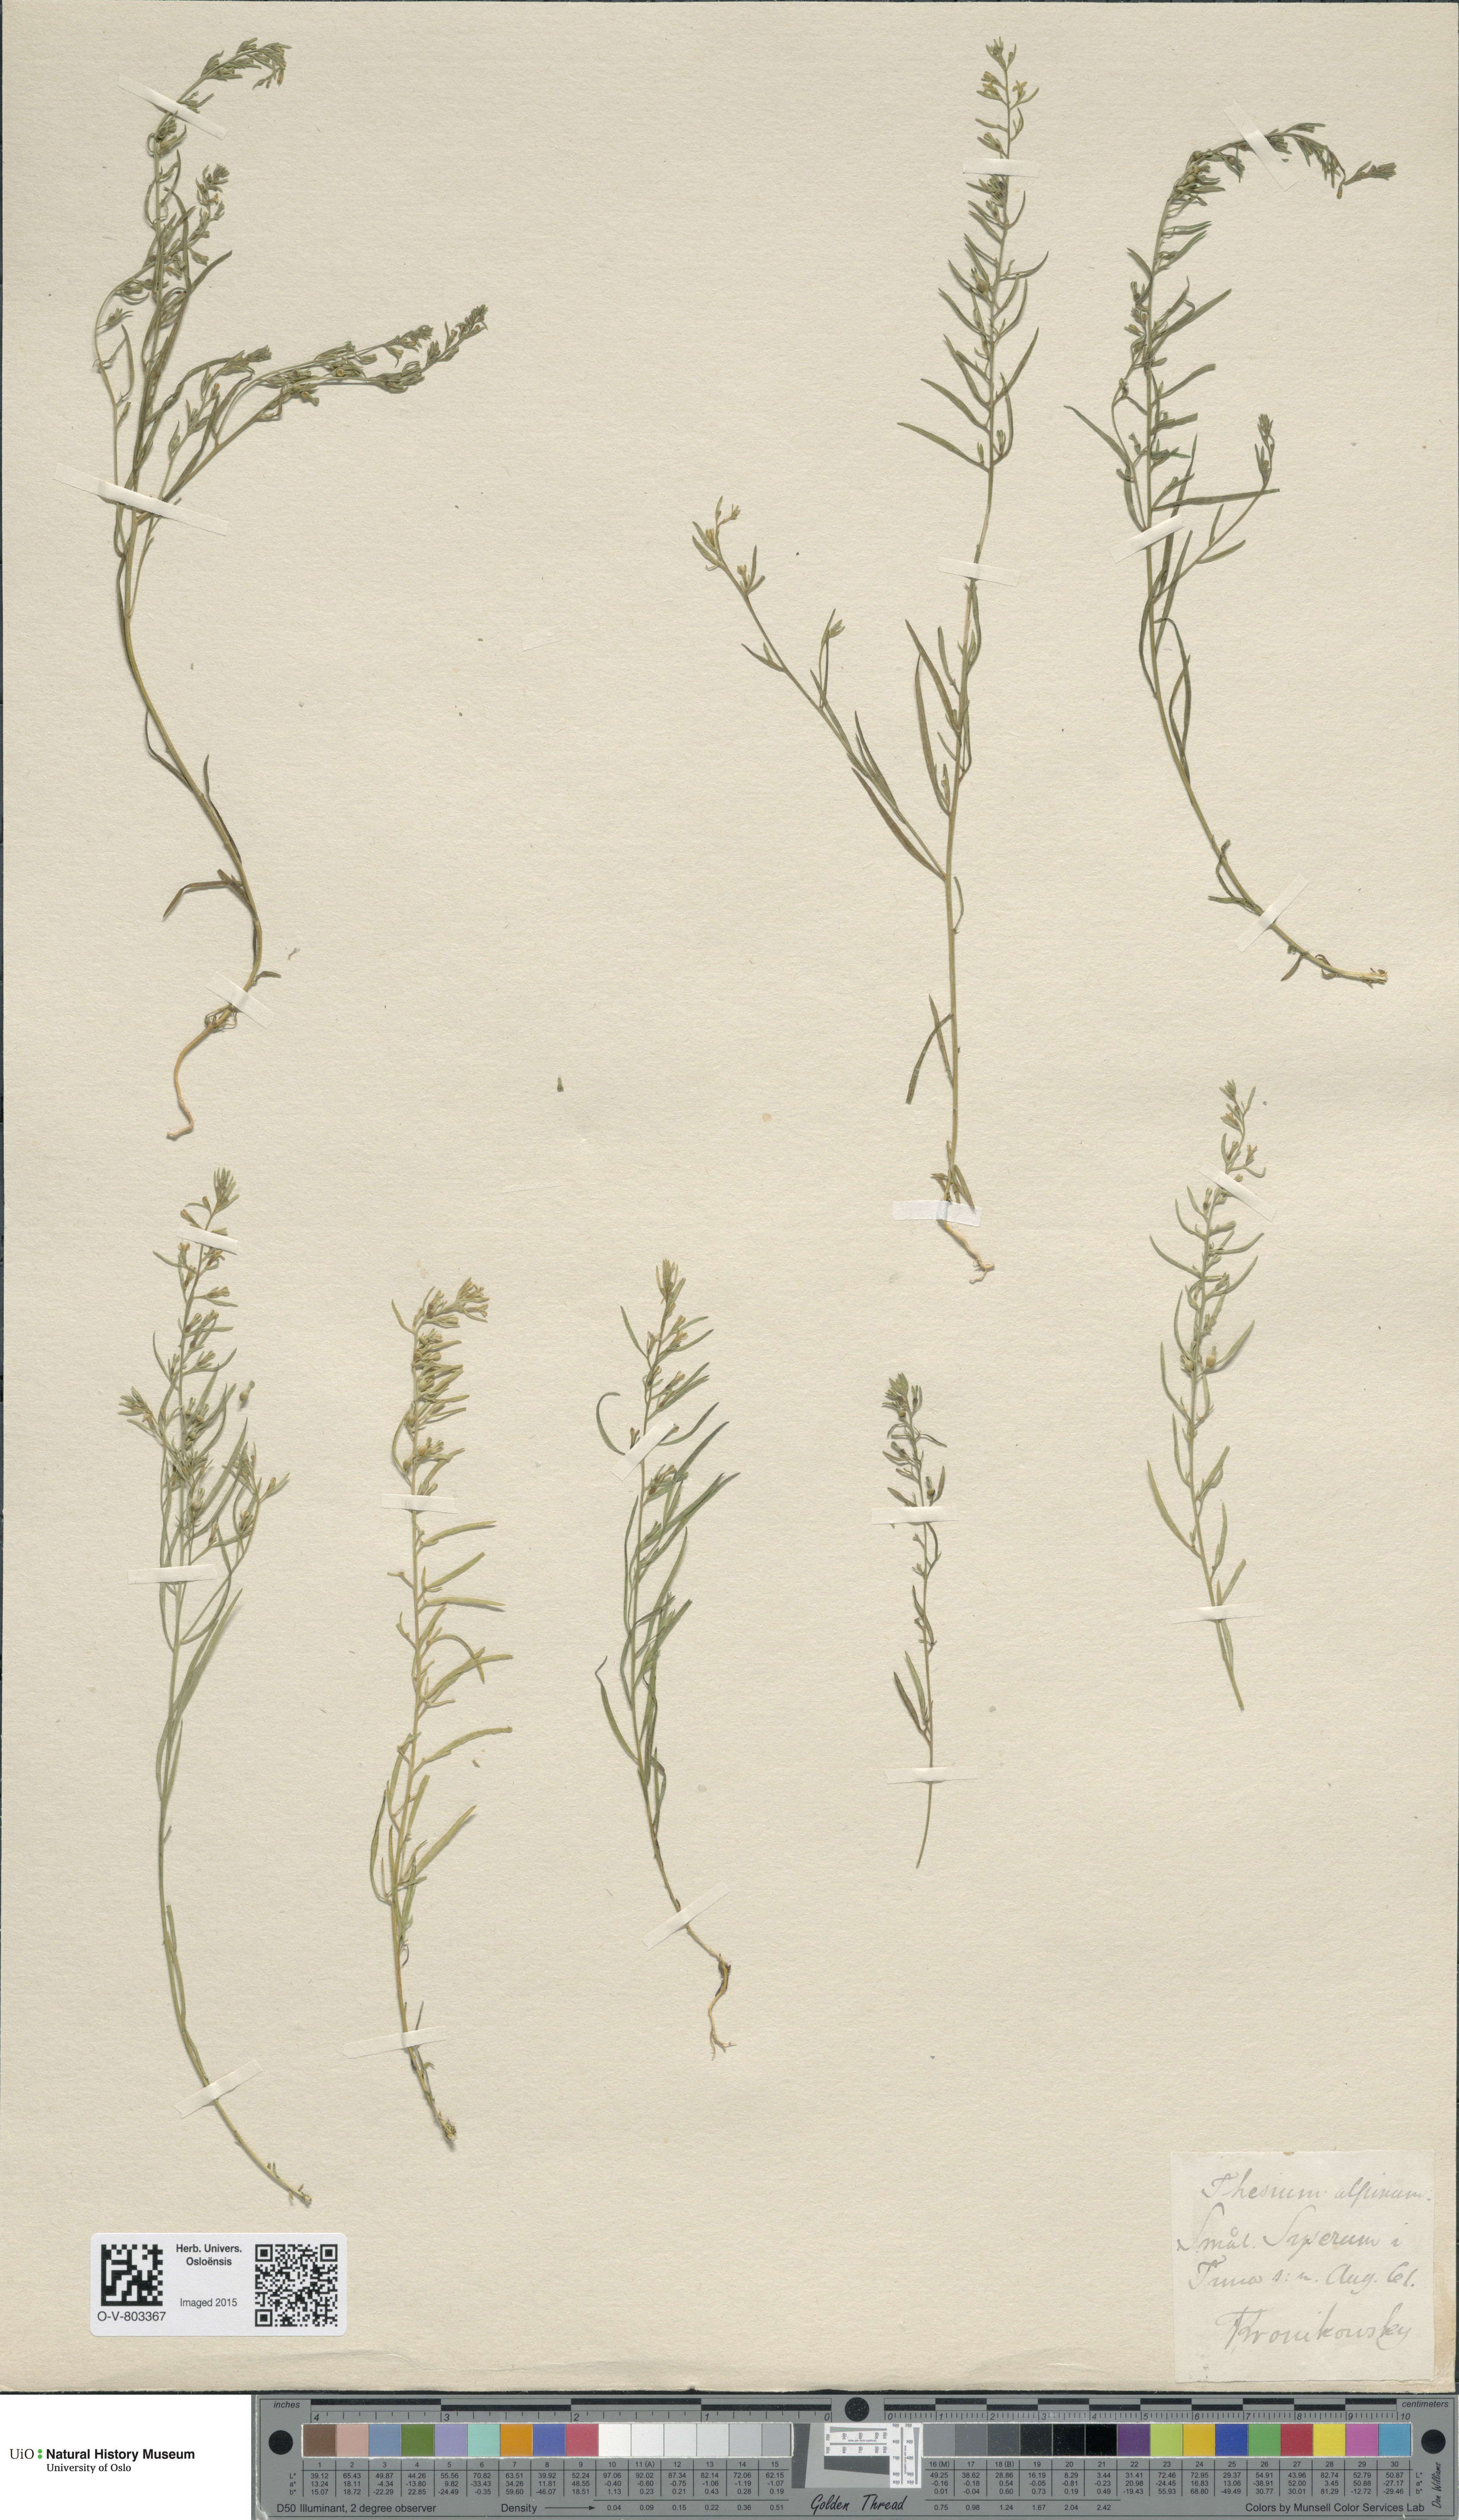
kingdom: Plantae
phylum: Tracheophyta
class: Magnoliopsida
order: Santalales
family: Thesiaceae
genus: Thesium
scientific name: Thesium alpinum
